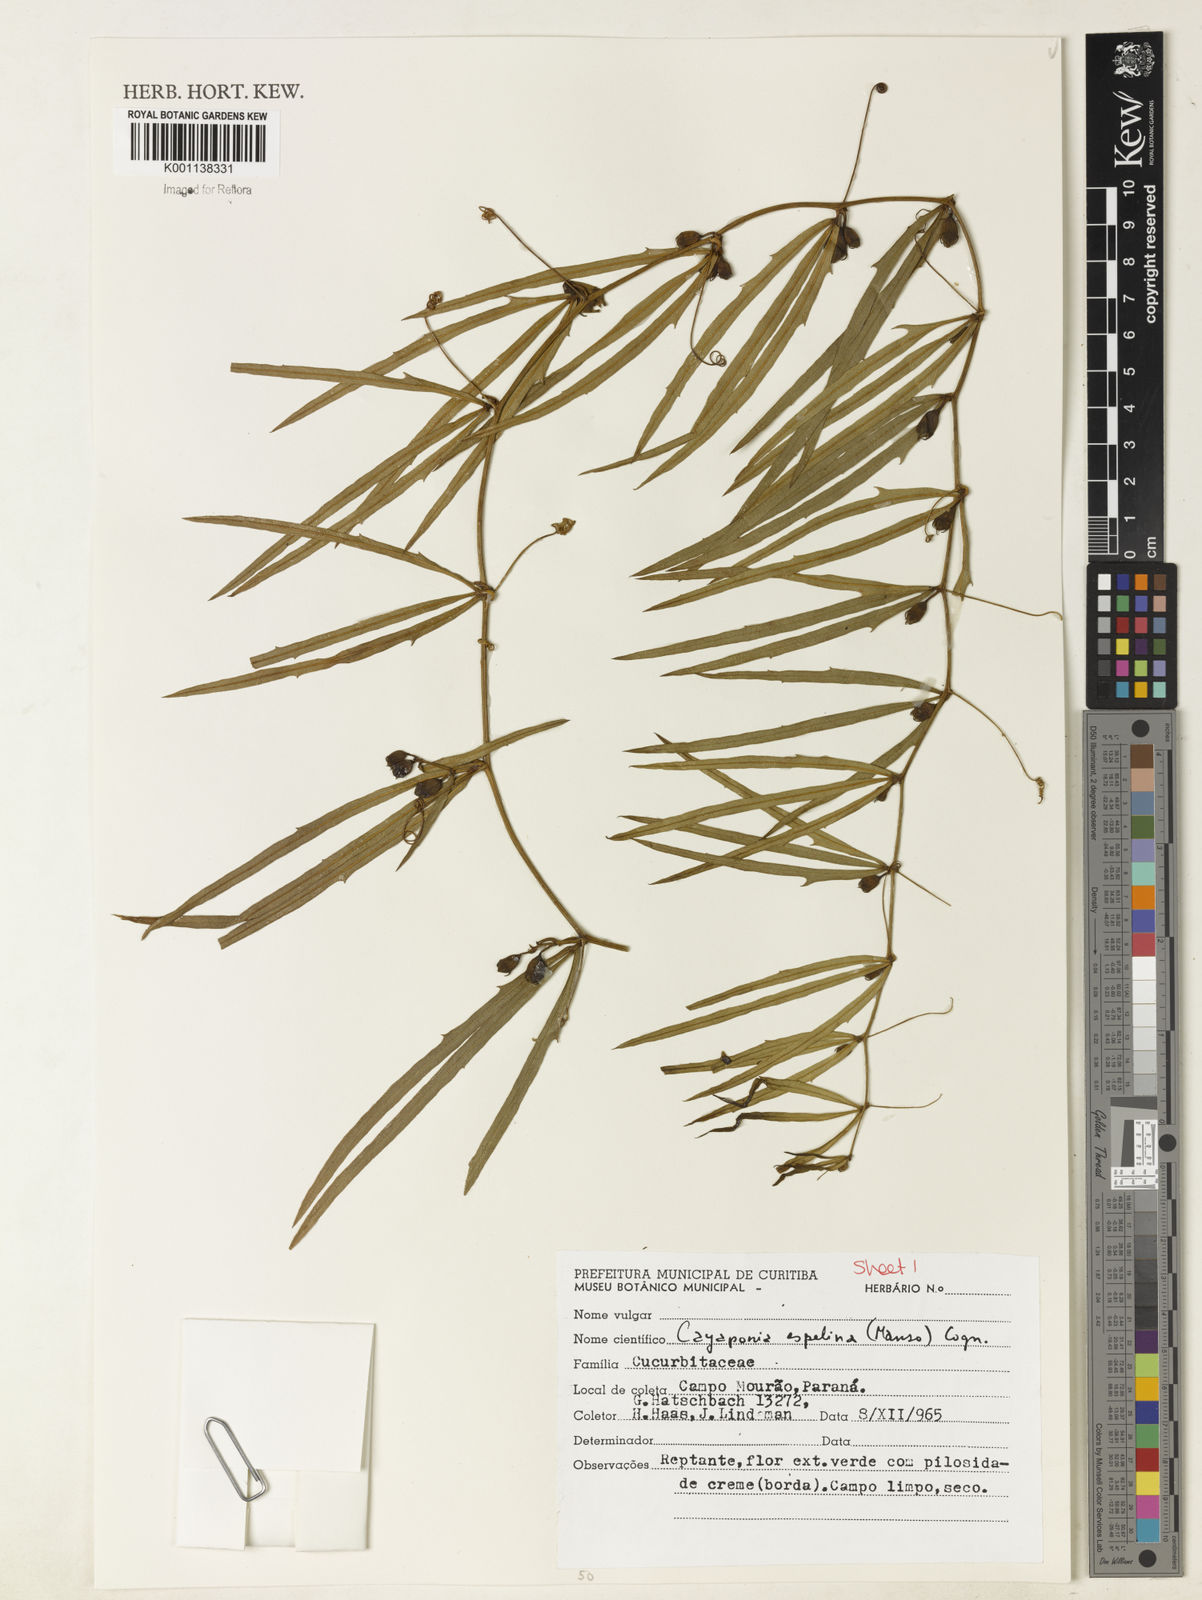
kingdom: Plantae
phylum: Tracheophyta
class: Magnoliopsida
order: Cucurbitales
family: Cucurbitaceae
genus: Cayaponia
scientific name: Cayaponia espelina
